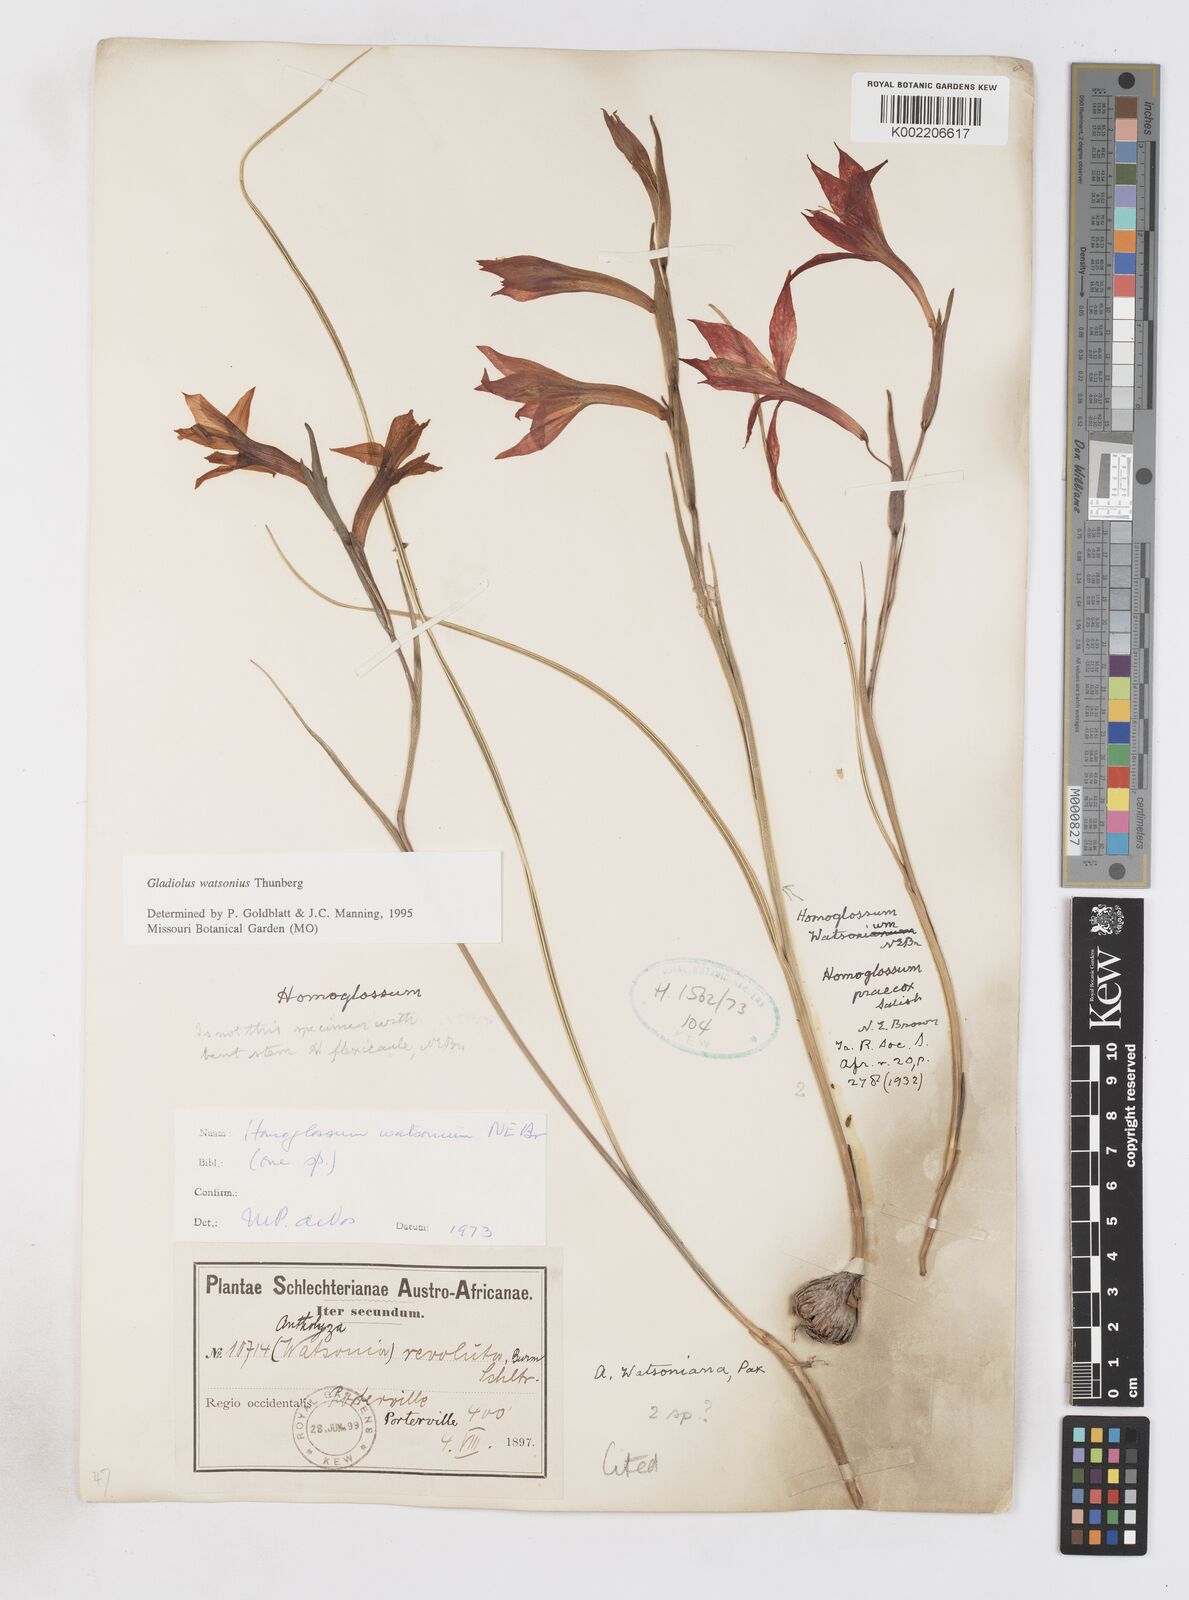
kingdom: Plantae
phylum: Tracheophyta
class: Liliopsida
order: Asparagales
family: Iridaceae
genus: Gladiolus
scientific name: Gladiolus watsonius
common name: Red afrikaner
